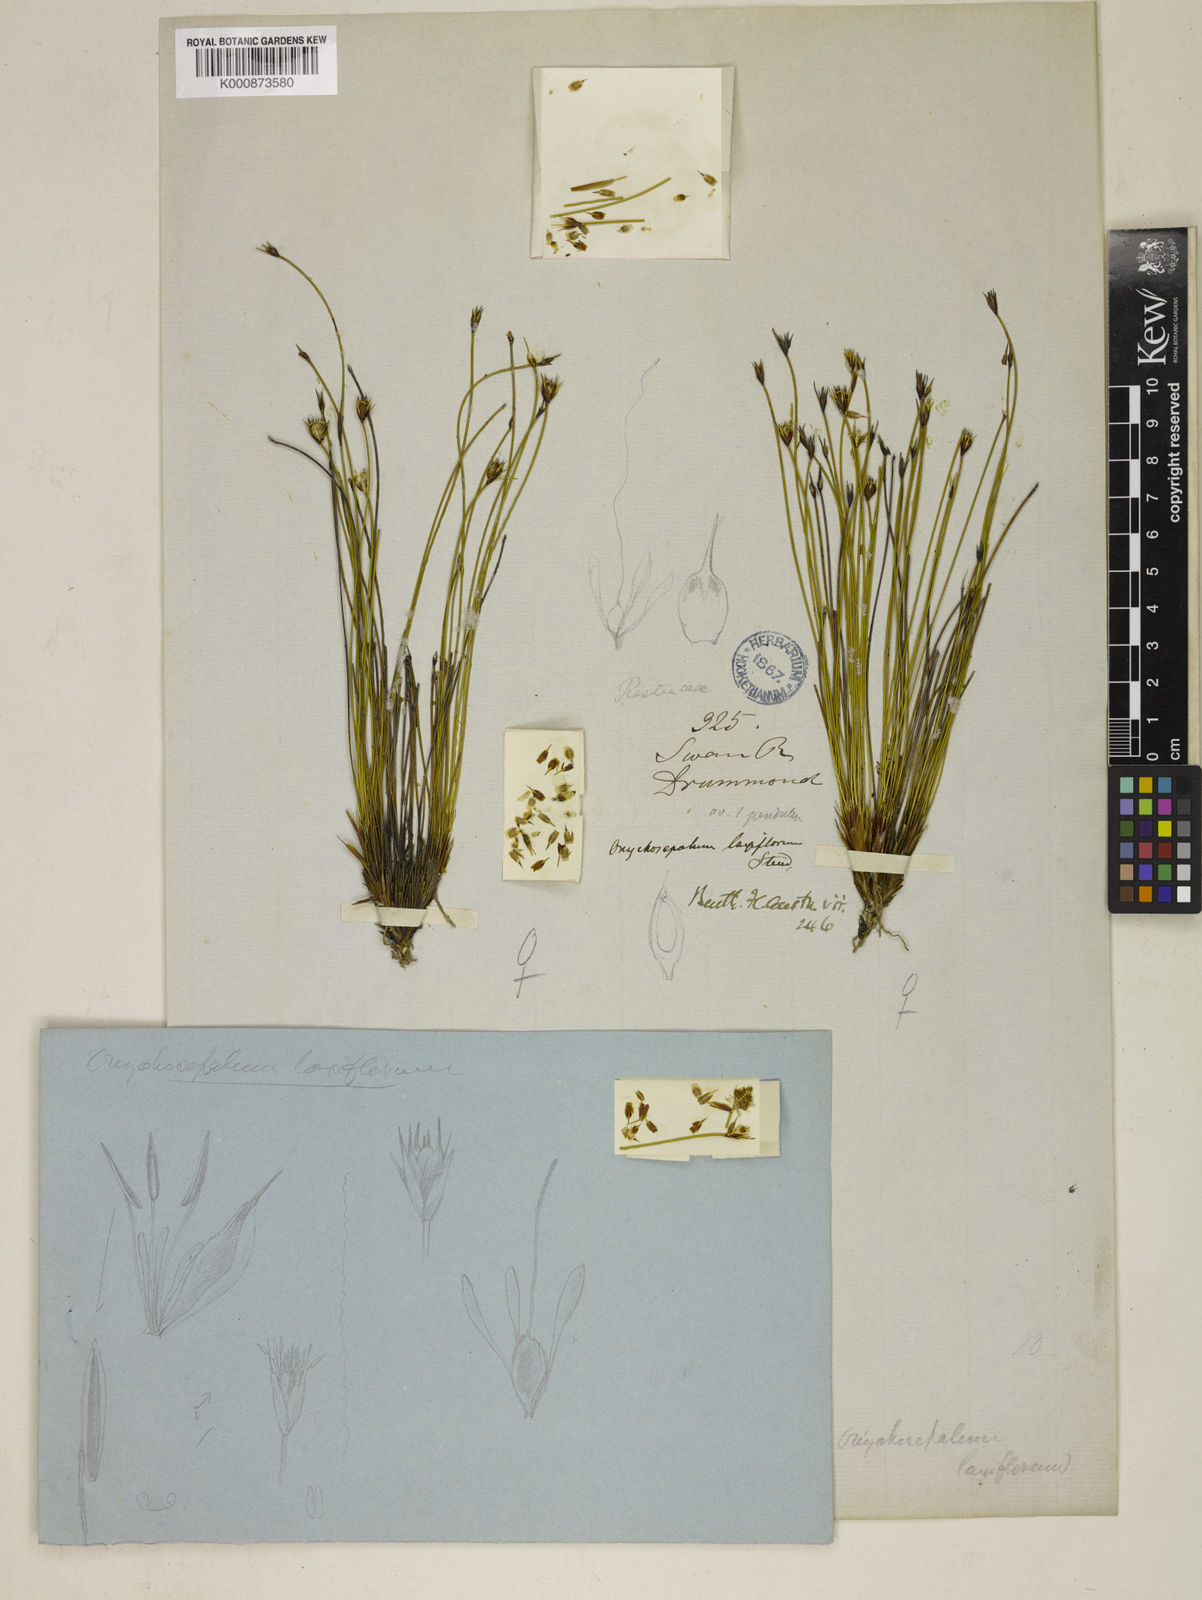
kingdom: Plantae
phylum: Tracheophyta
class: Liliopsida
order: Poales
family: Restionaceae
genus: Desmocladus
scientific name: Desmocladus laxiflorus
